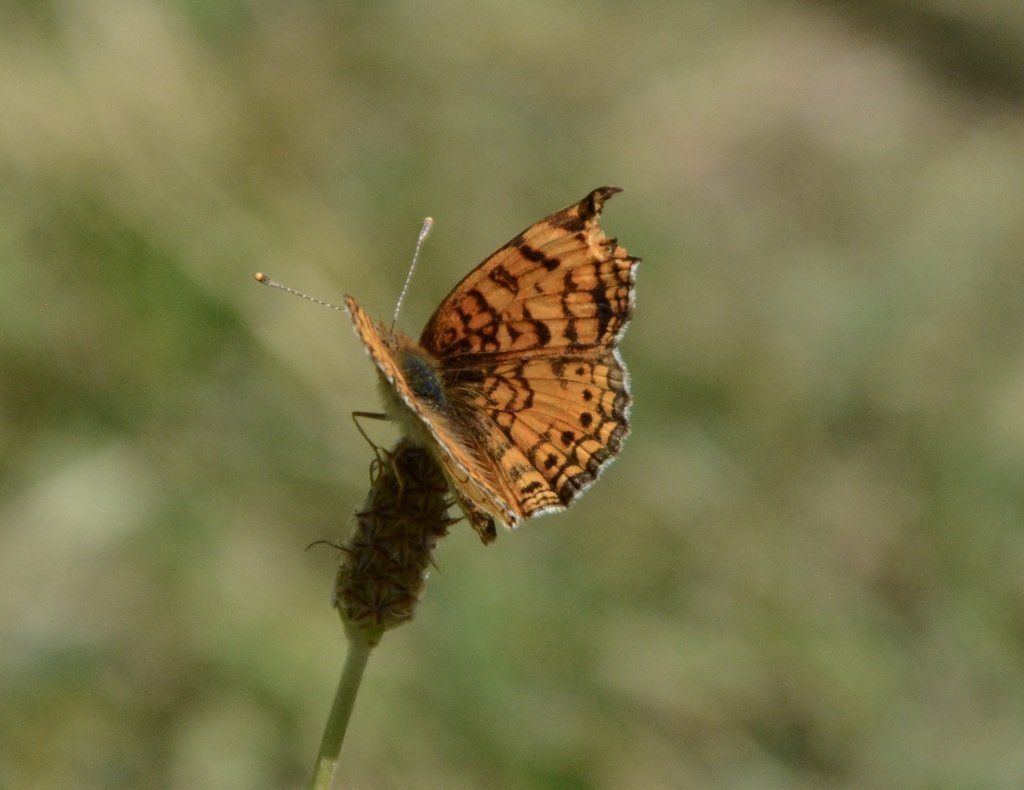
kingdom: Animalia
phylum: Arthropoda
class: Insecta
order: Lepidoptera
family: Nymphalidae
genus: Phyciodes
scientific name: Phyciodes tharos
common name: Field Crescent
